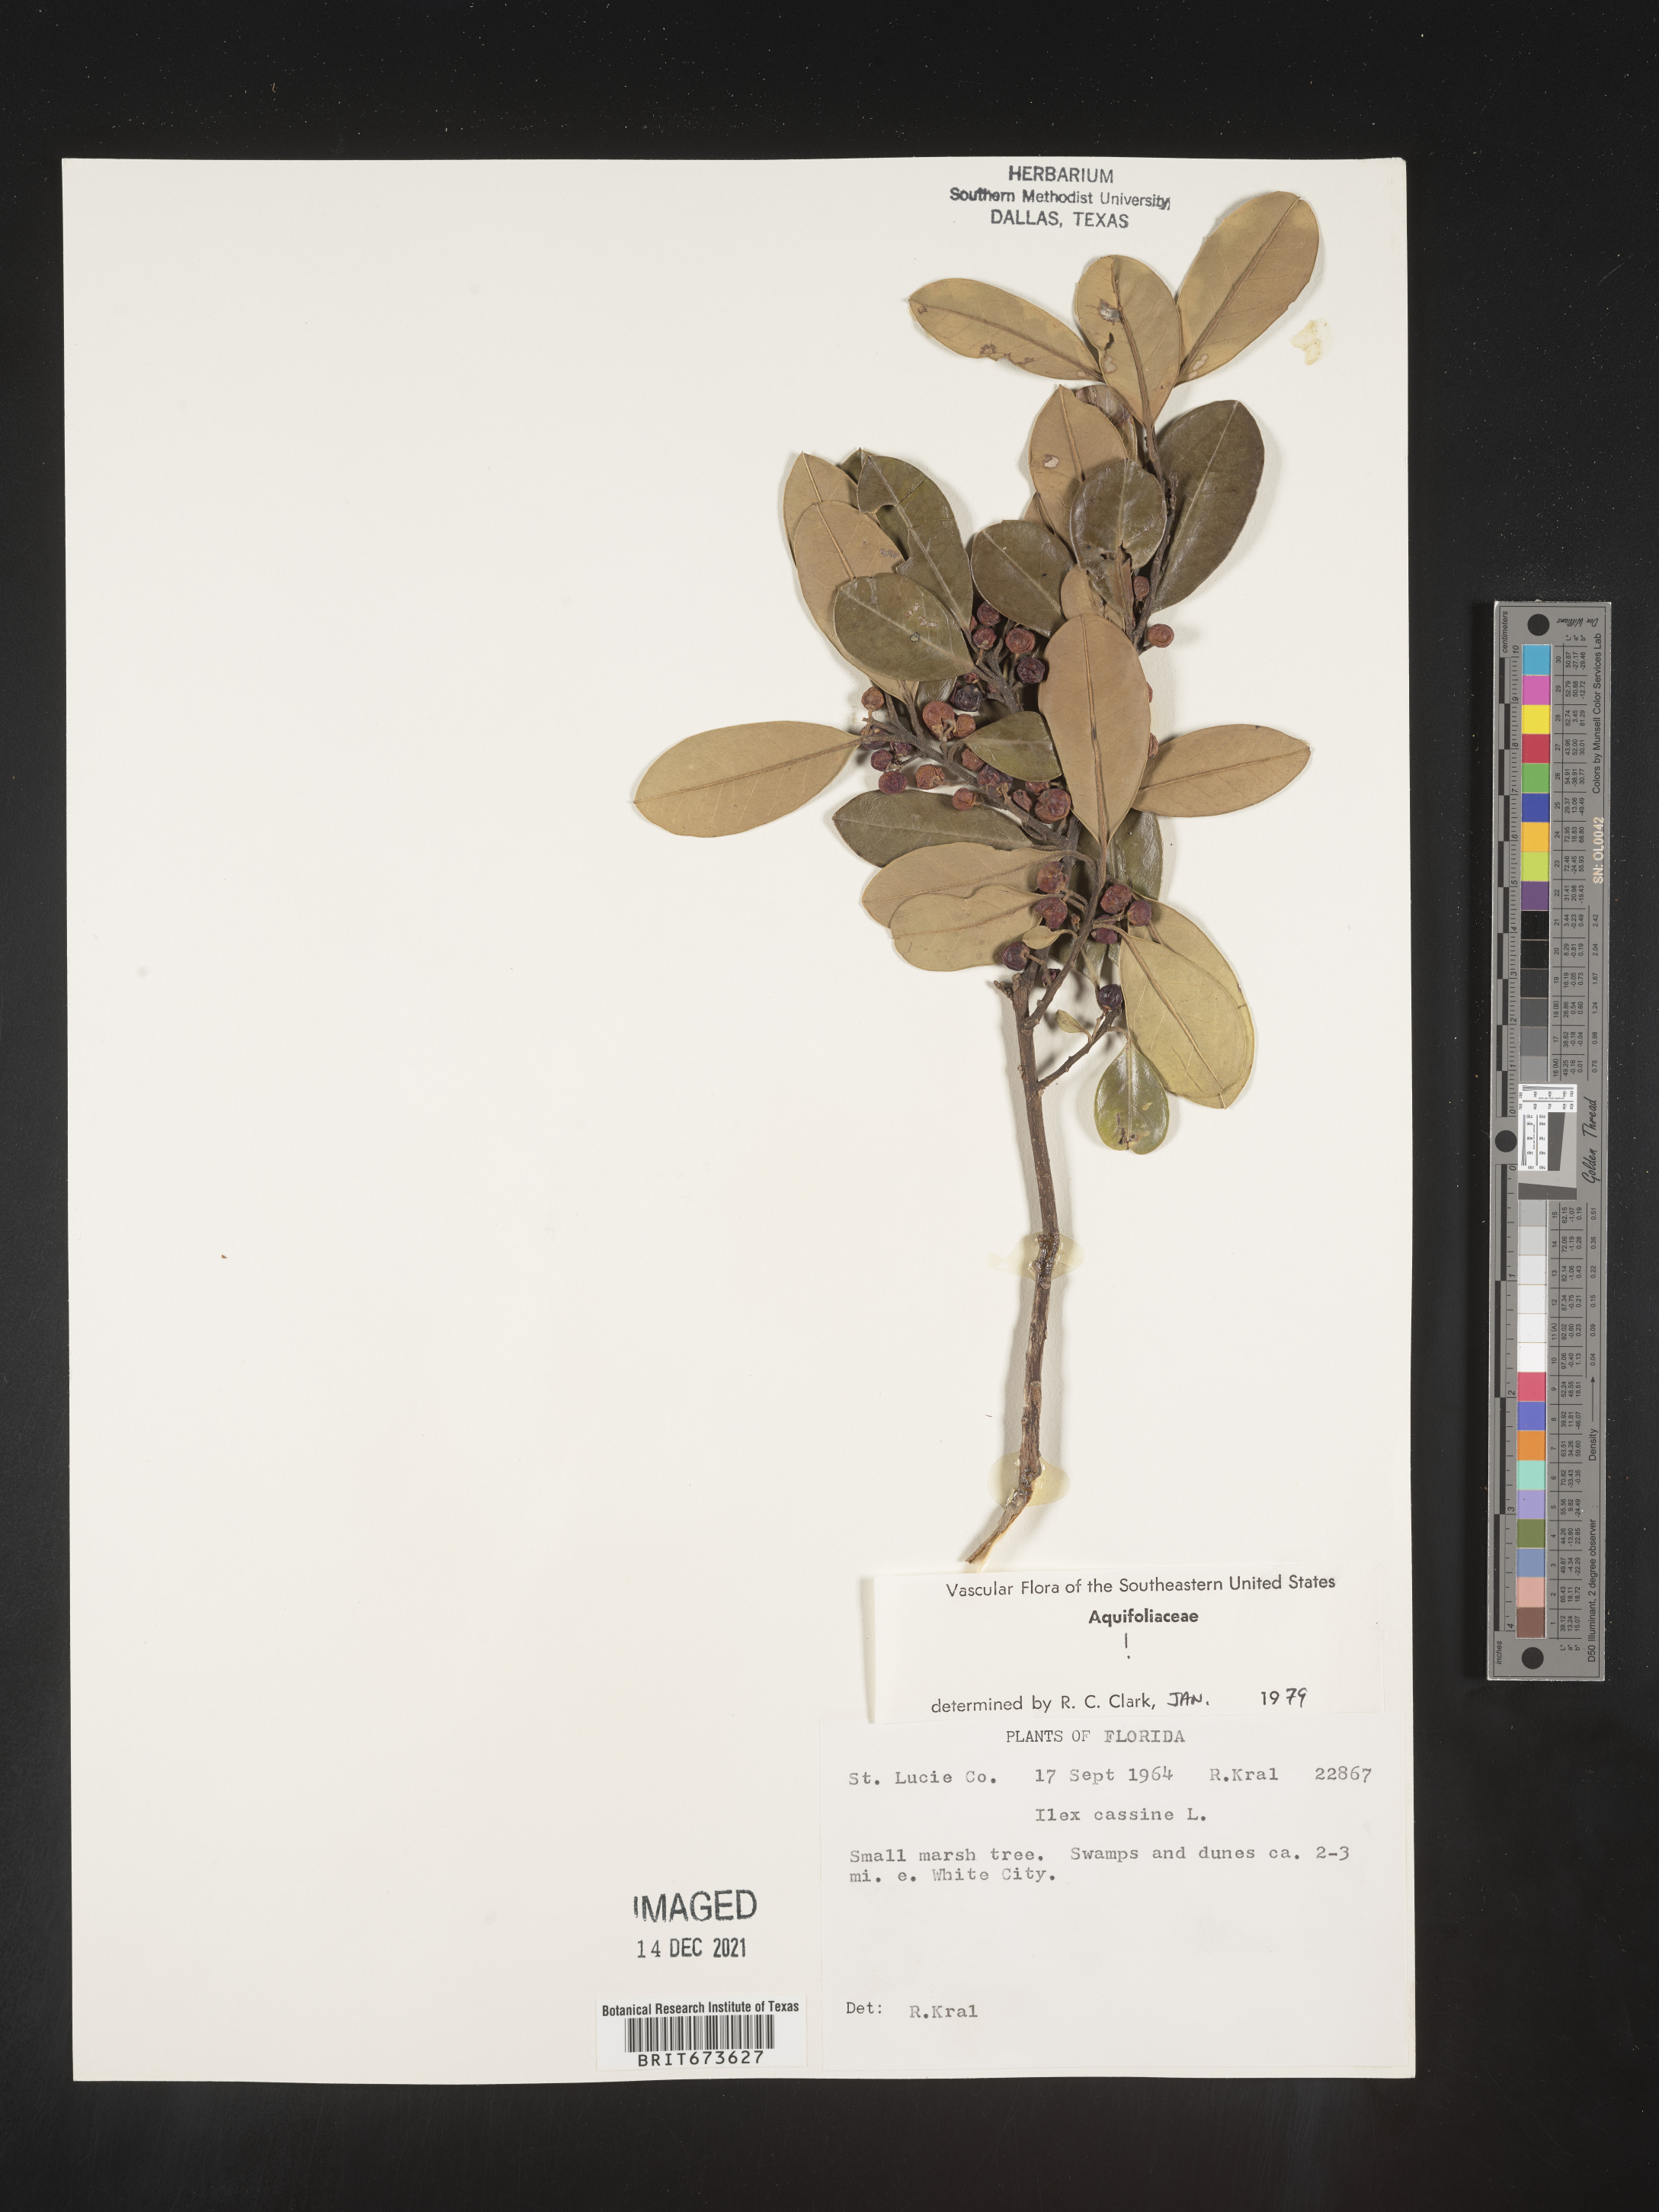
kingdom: Plantae
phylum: Tracheophyta
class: Magnoliopsida
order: Aquifoliales
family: Aquifoliaceae
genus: Ilex
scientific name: Ilex cassine
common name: Dahoon
